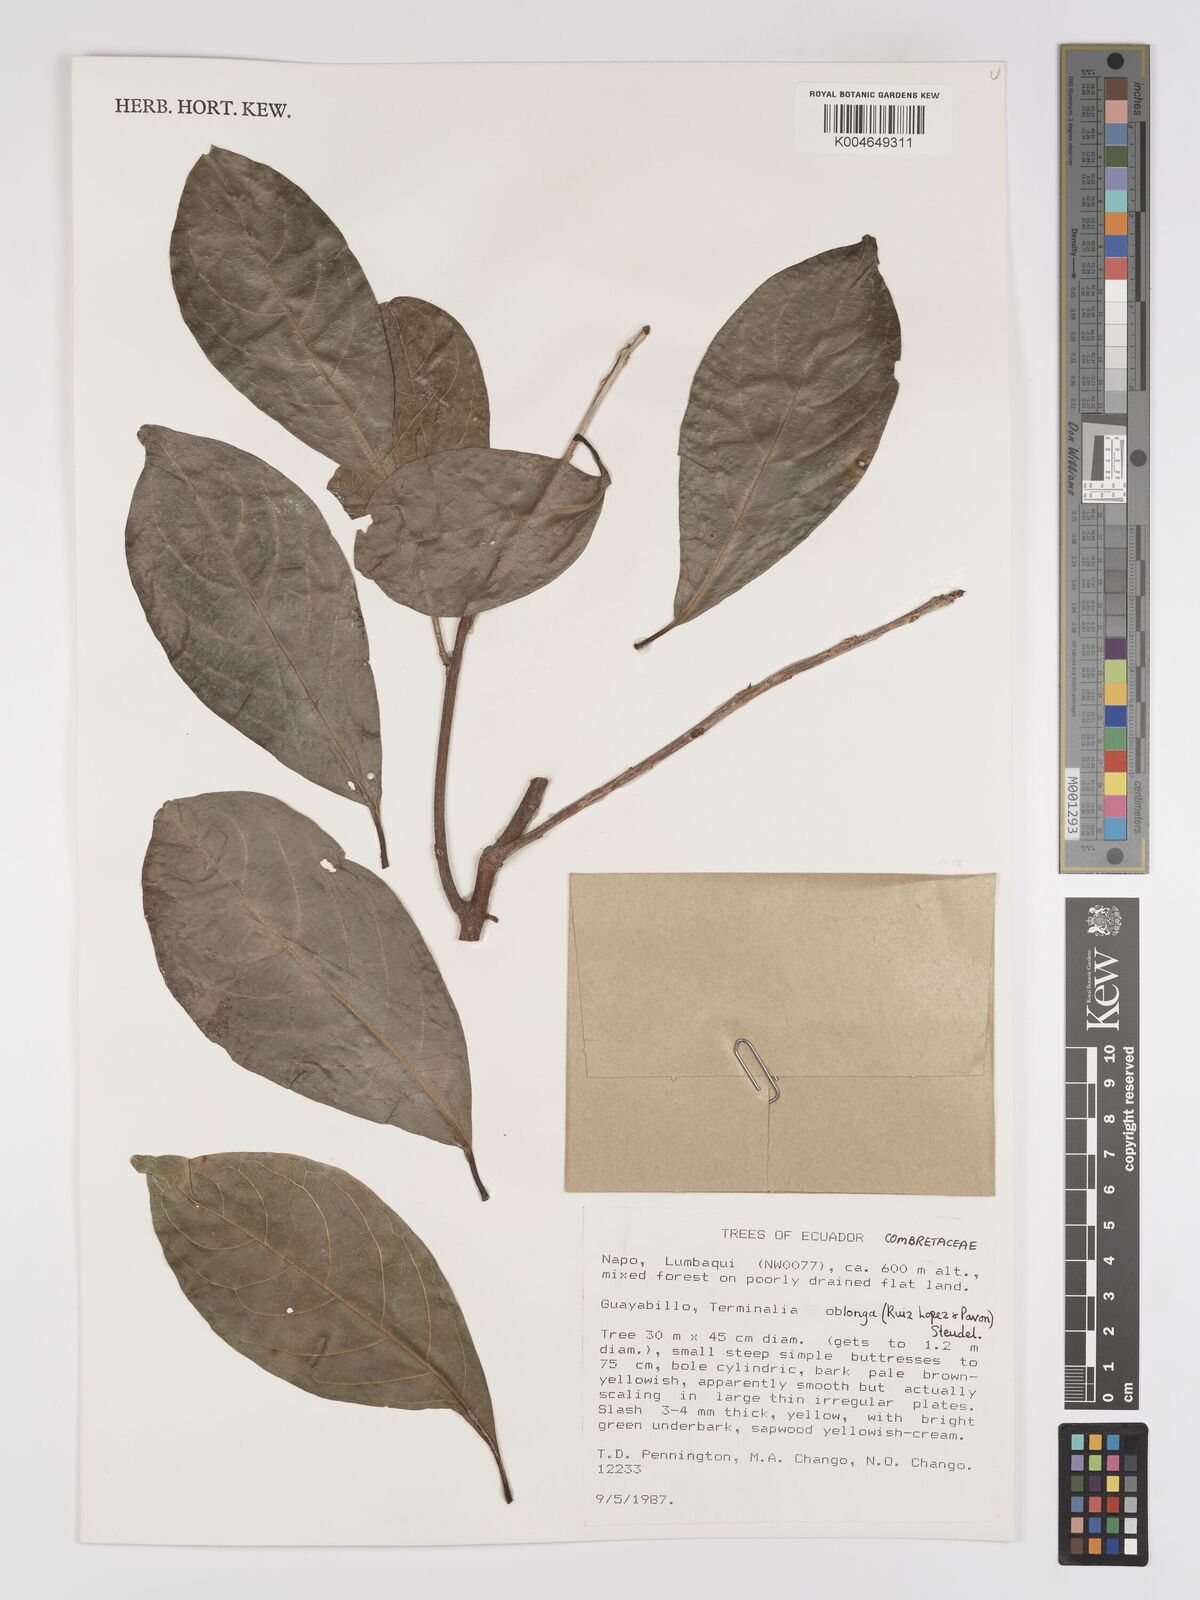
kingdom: Plantae
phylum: Tracheophyta
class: Magnoliopsida
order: Myrtales
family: Combretaceae
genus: Terminalia
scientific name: Terminalia oblonga
